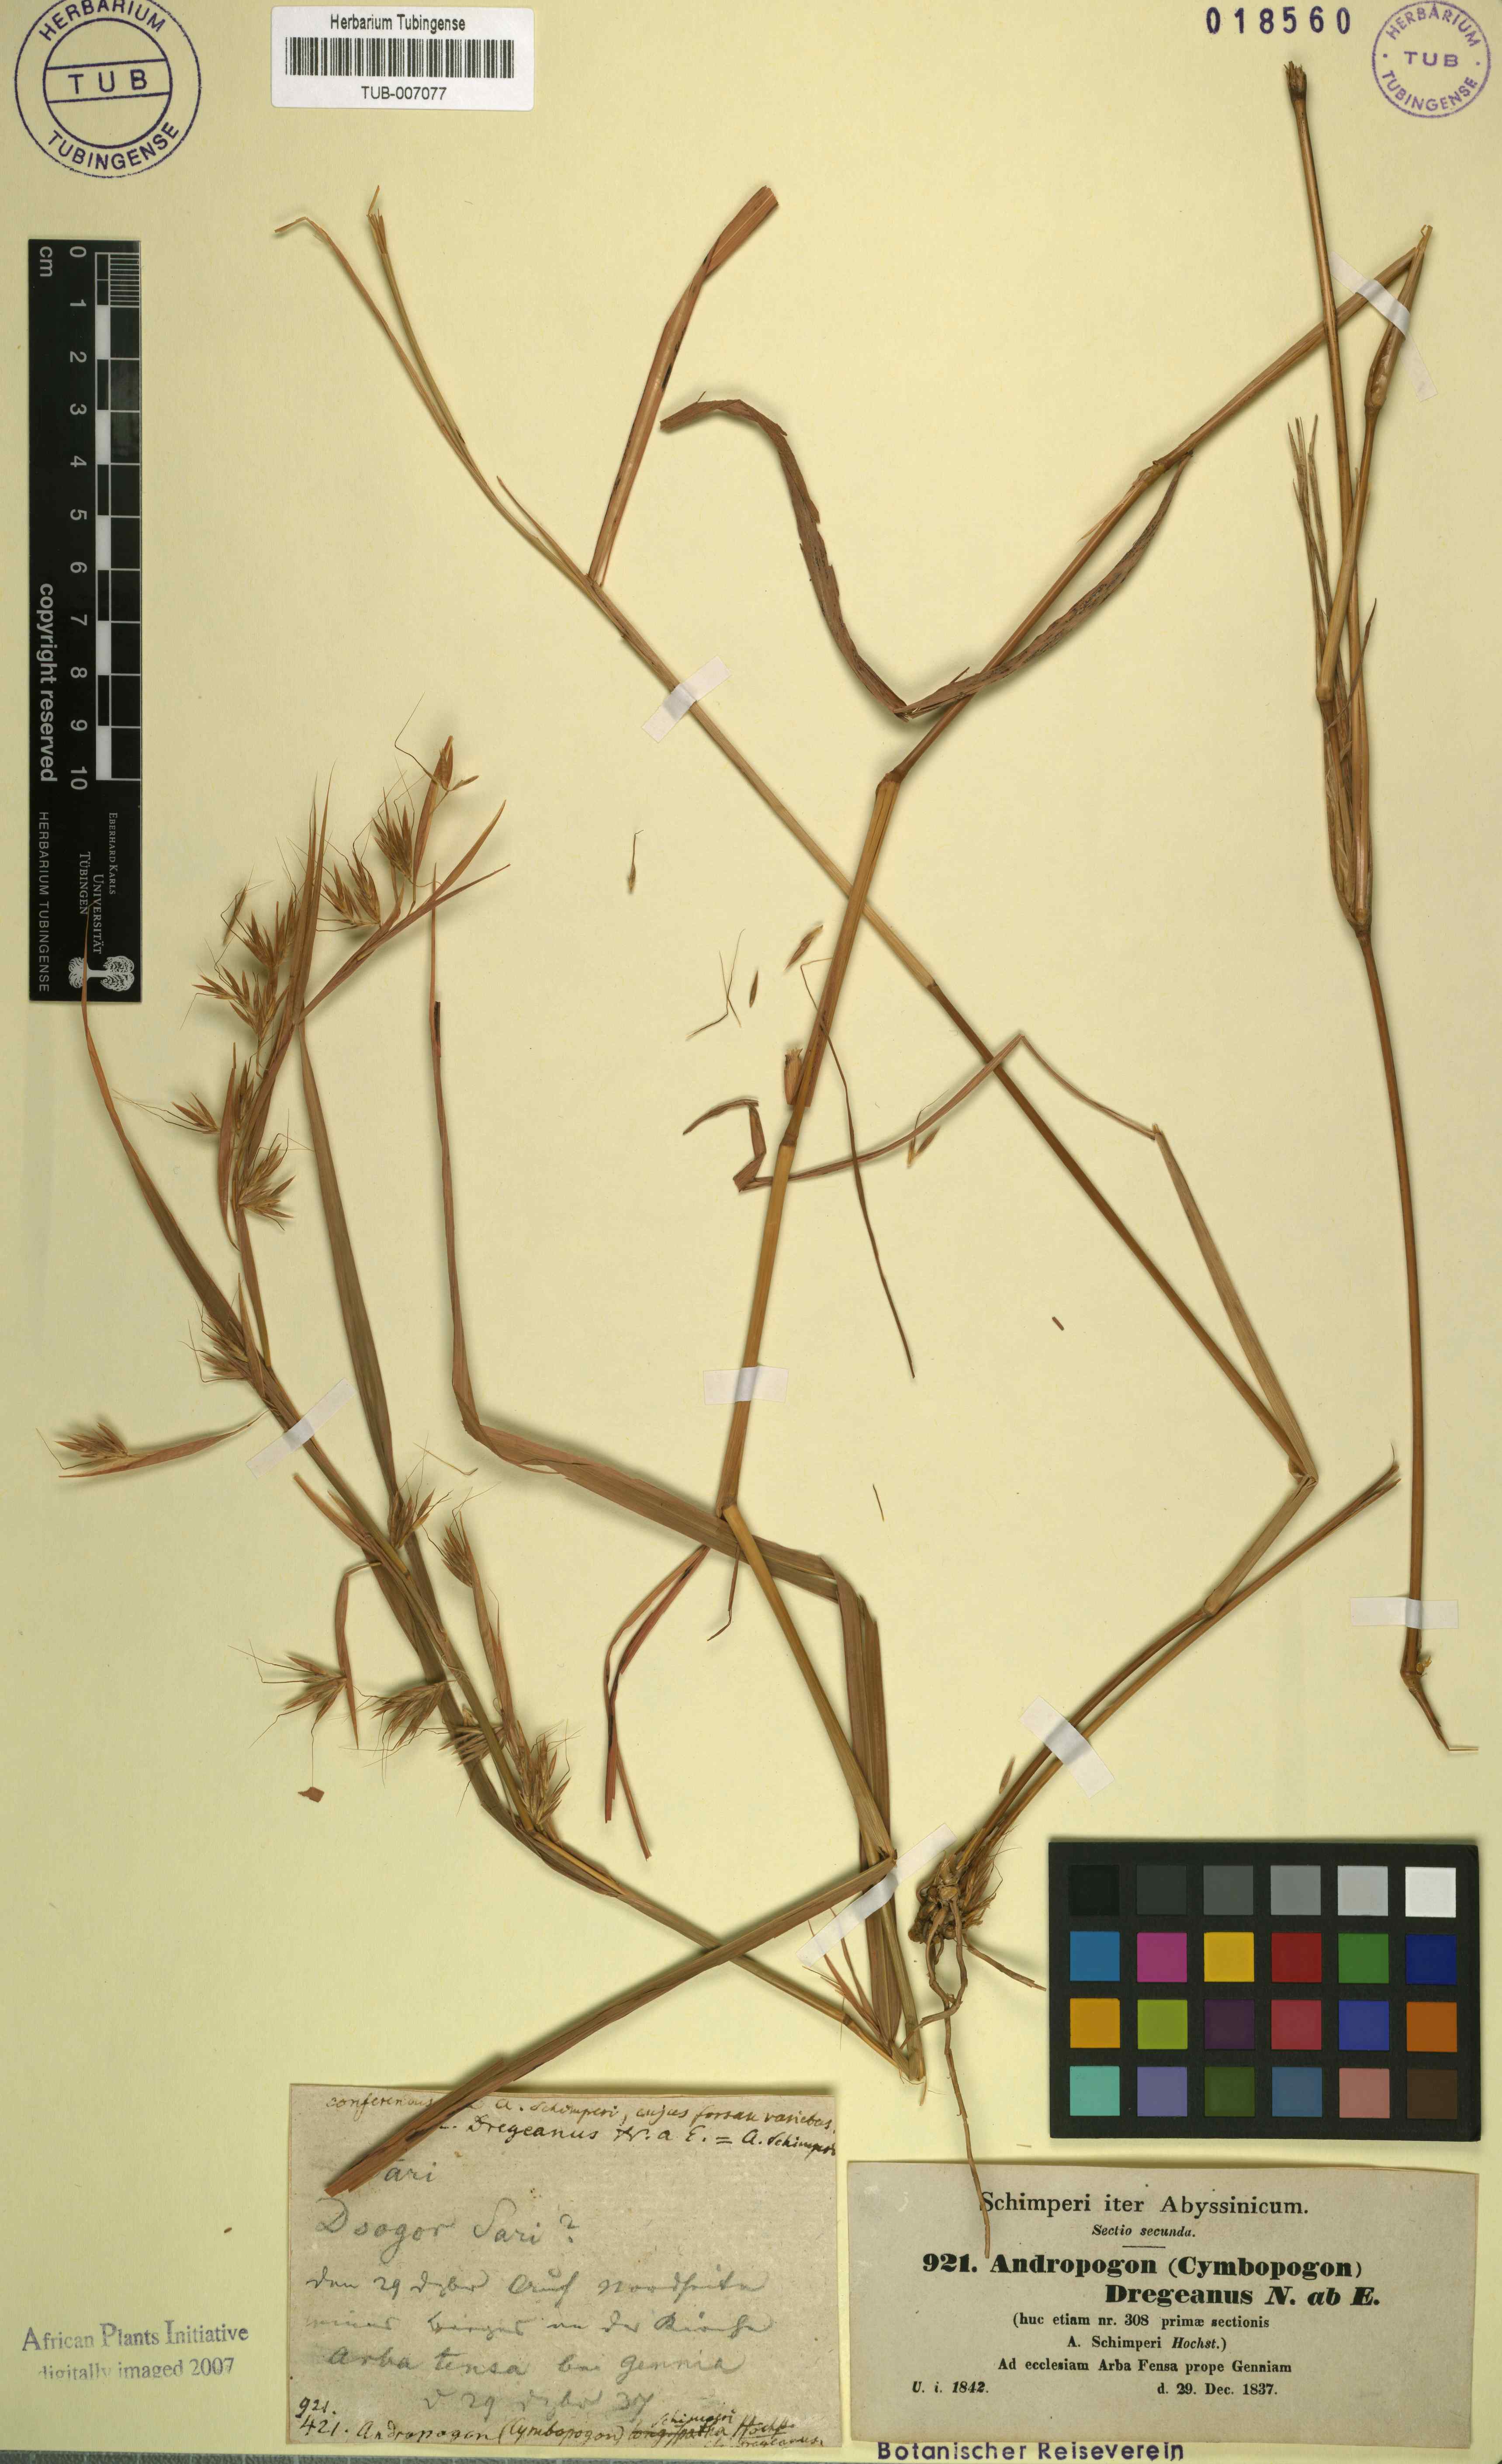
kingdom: Plantae
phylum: Tracheophyta
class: Liliopsida
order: Poales
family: Poaceae
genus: Hyparrhenia
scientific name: Hyparrhenia schimperi
